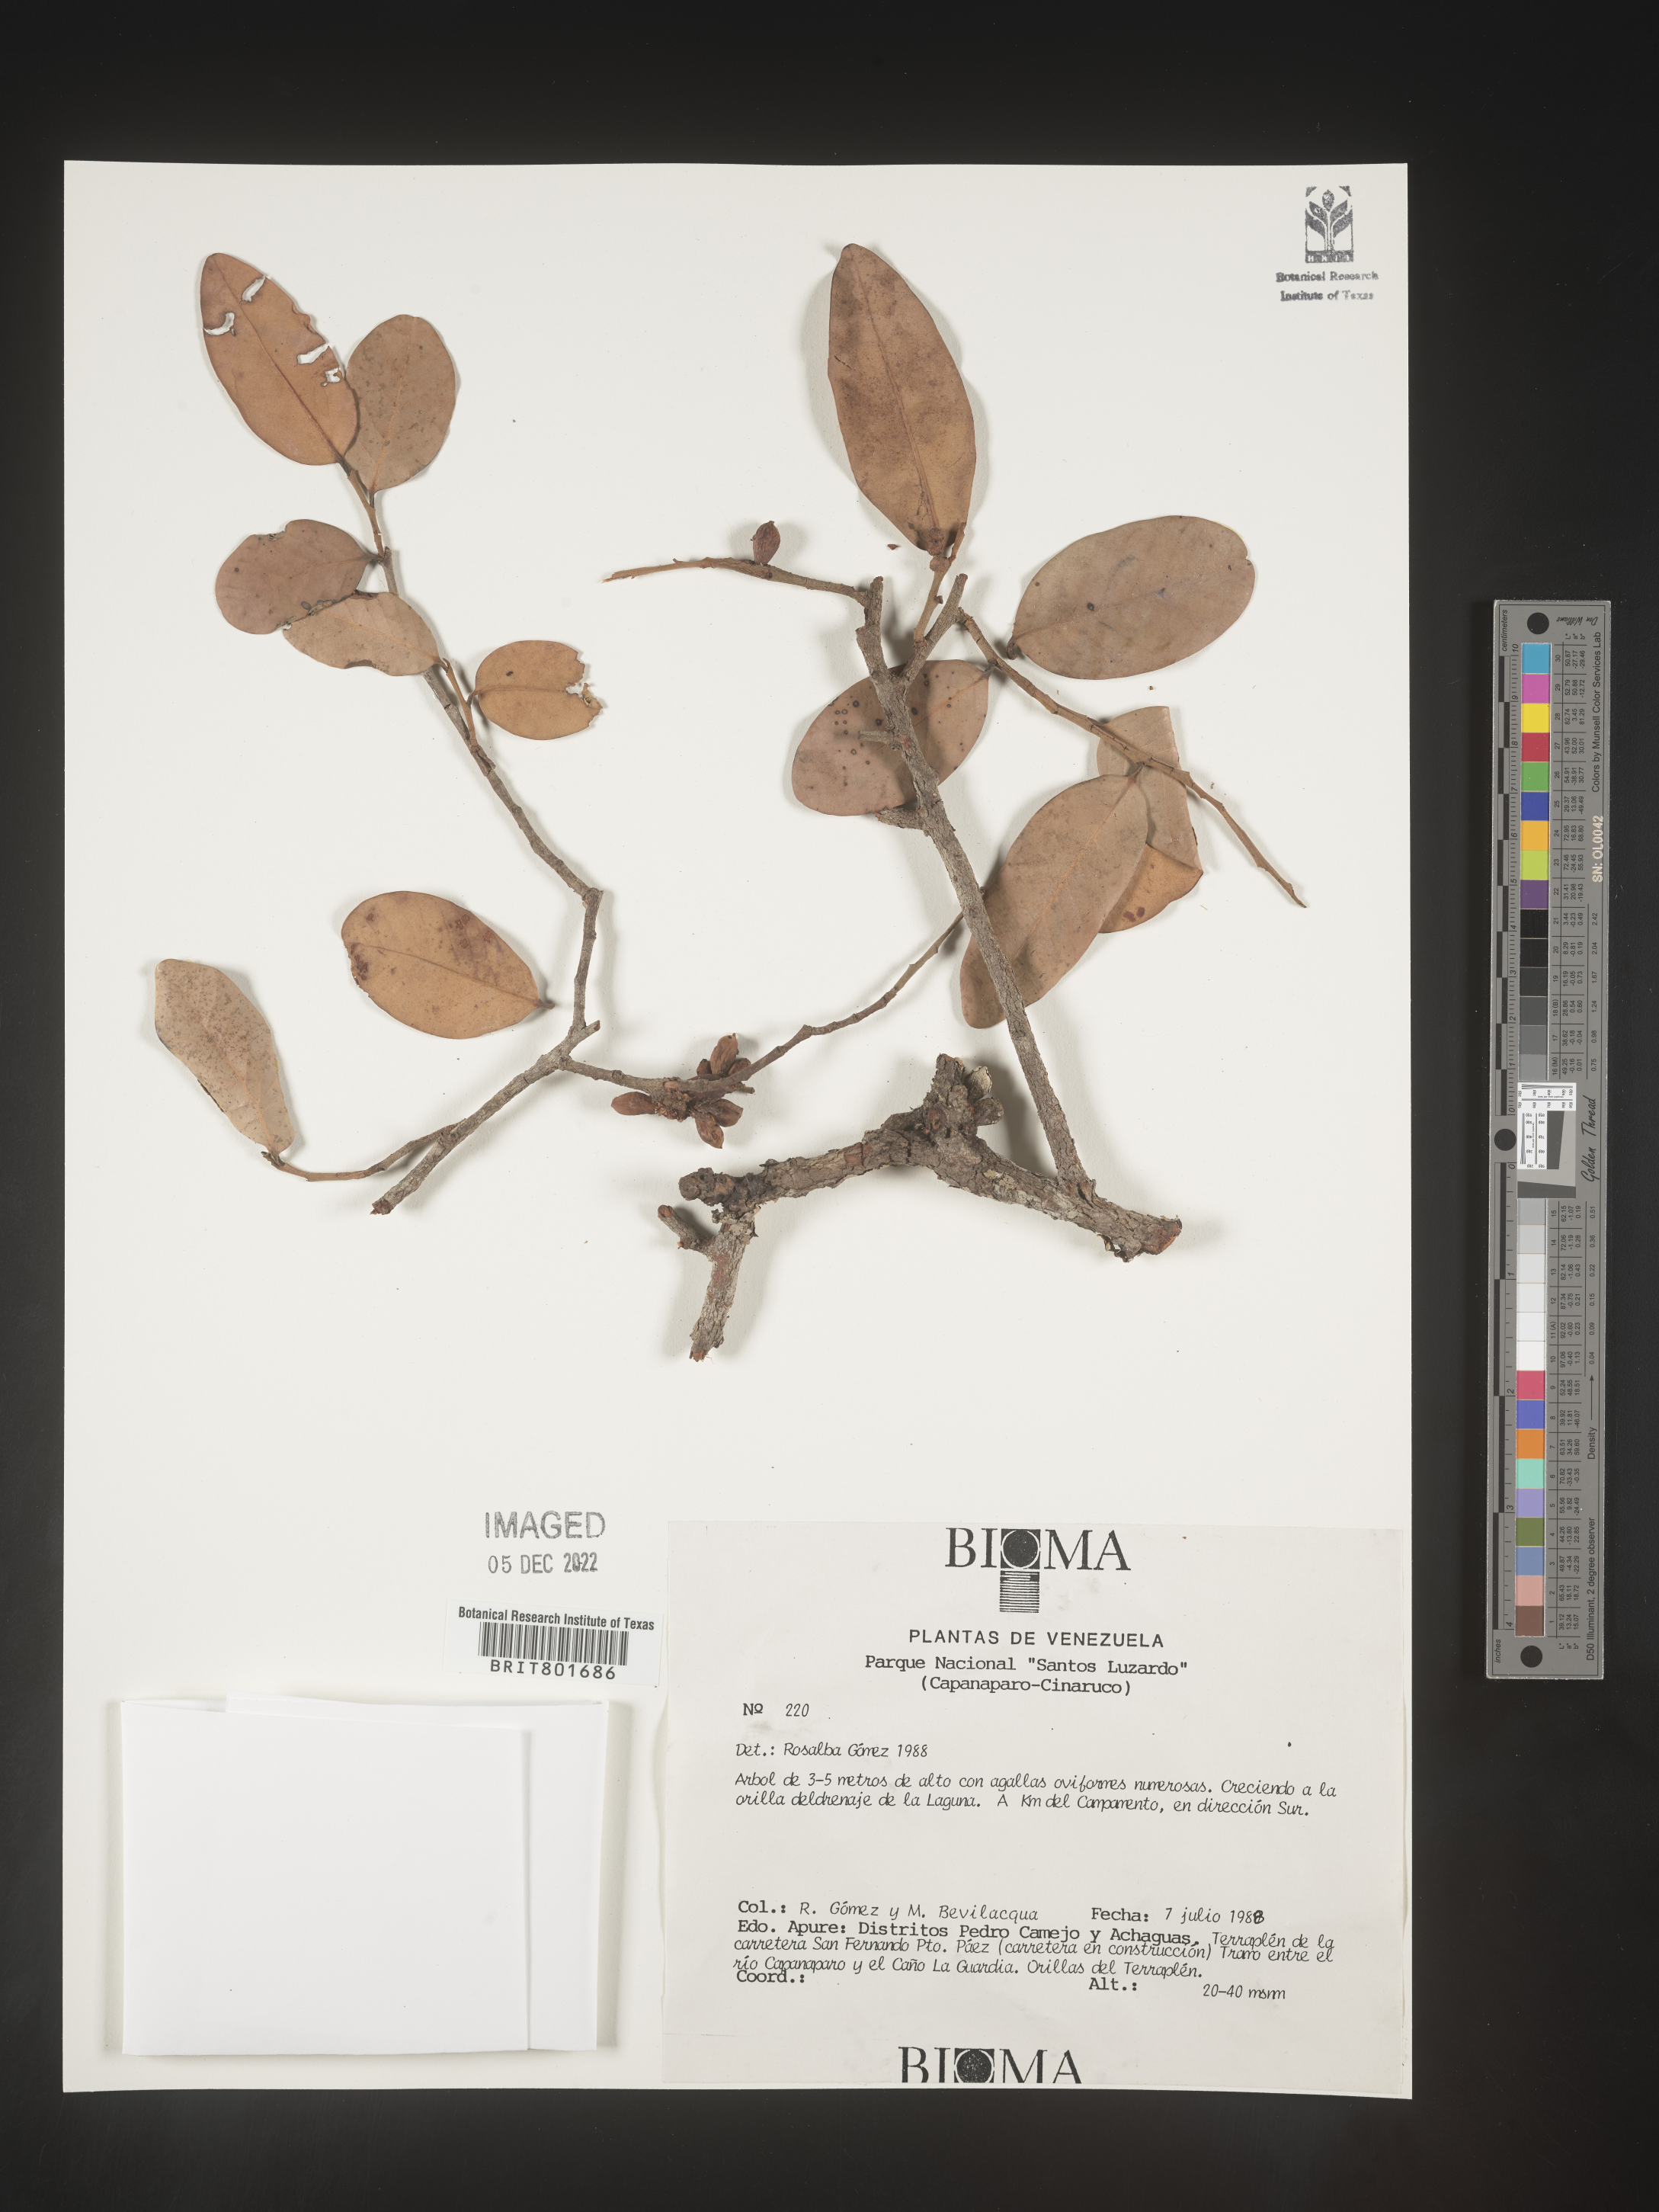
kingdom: Plantae
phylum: Tracheophyta
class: Magnoliopsida
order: Malpighiales
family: Clusiaceae
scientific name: Clusiaceae
